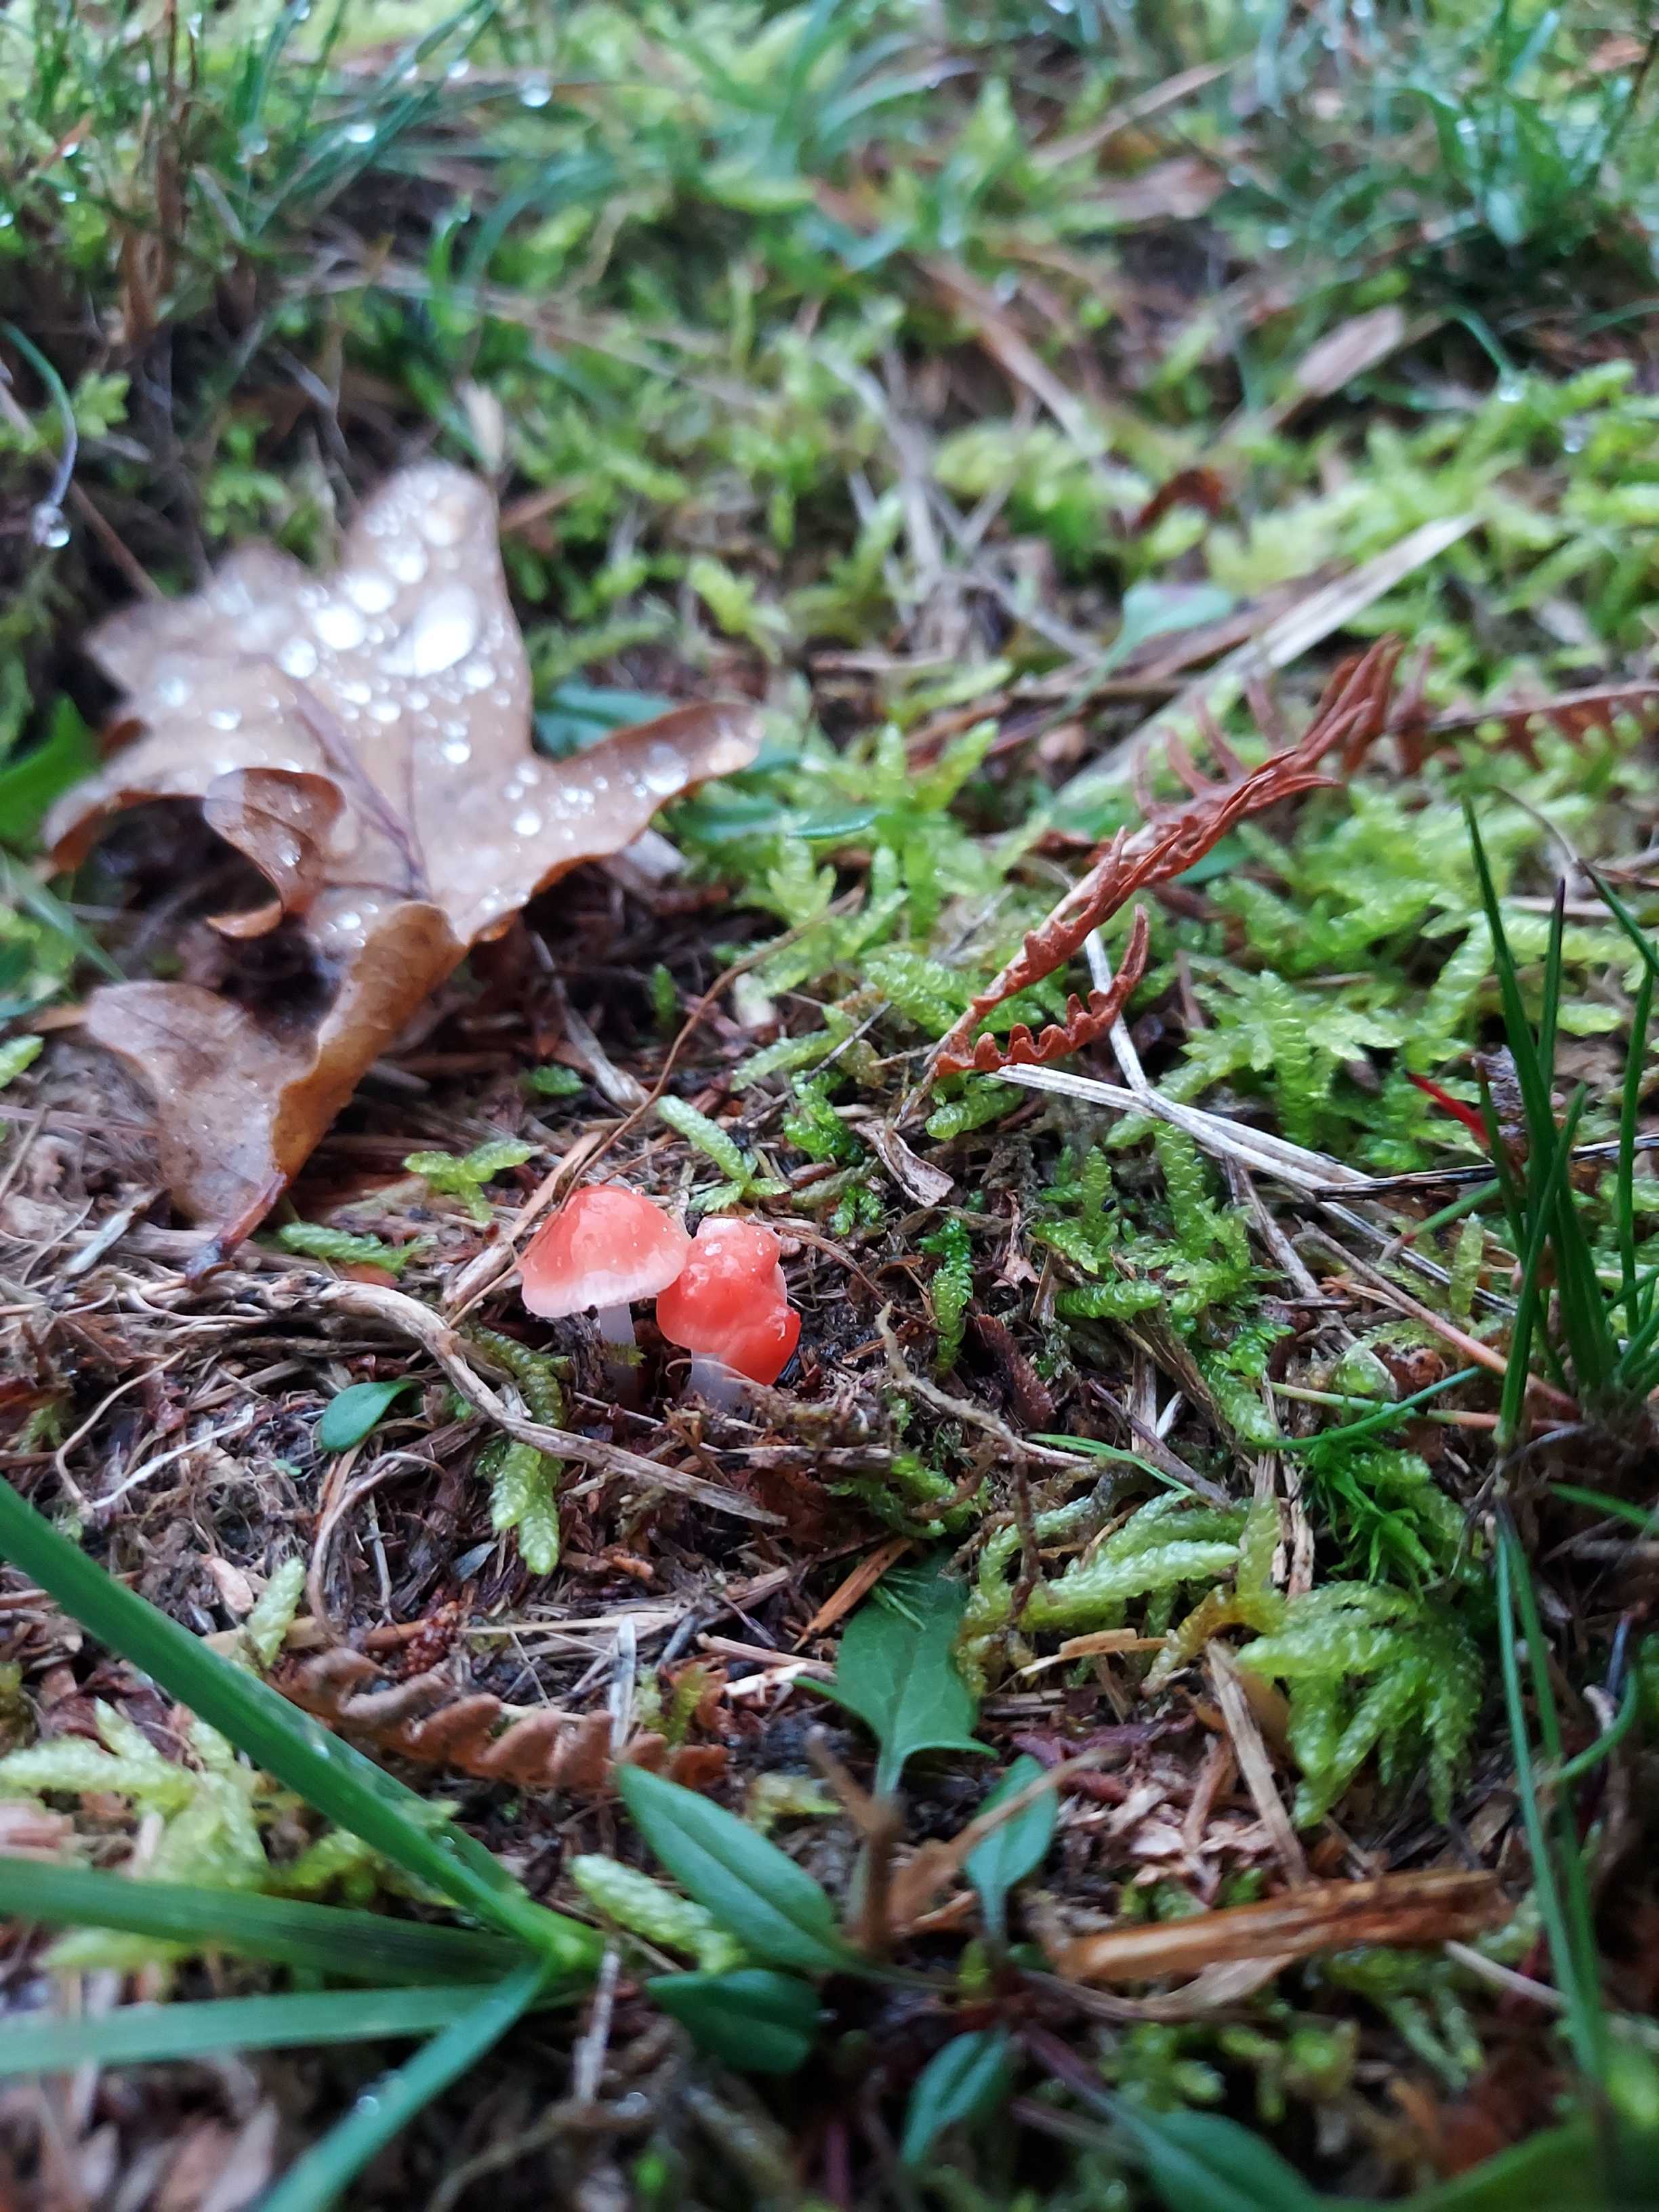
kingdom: Fungi
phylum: Basidiomycota
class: Agaricomycetes
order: Agaricales
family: Mycenaceae
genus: Atheniella
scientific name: Atheniella adonis
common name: rønnerød huesvamp
